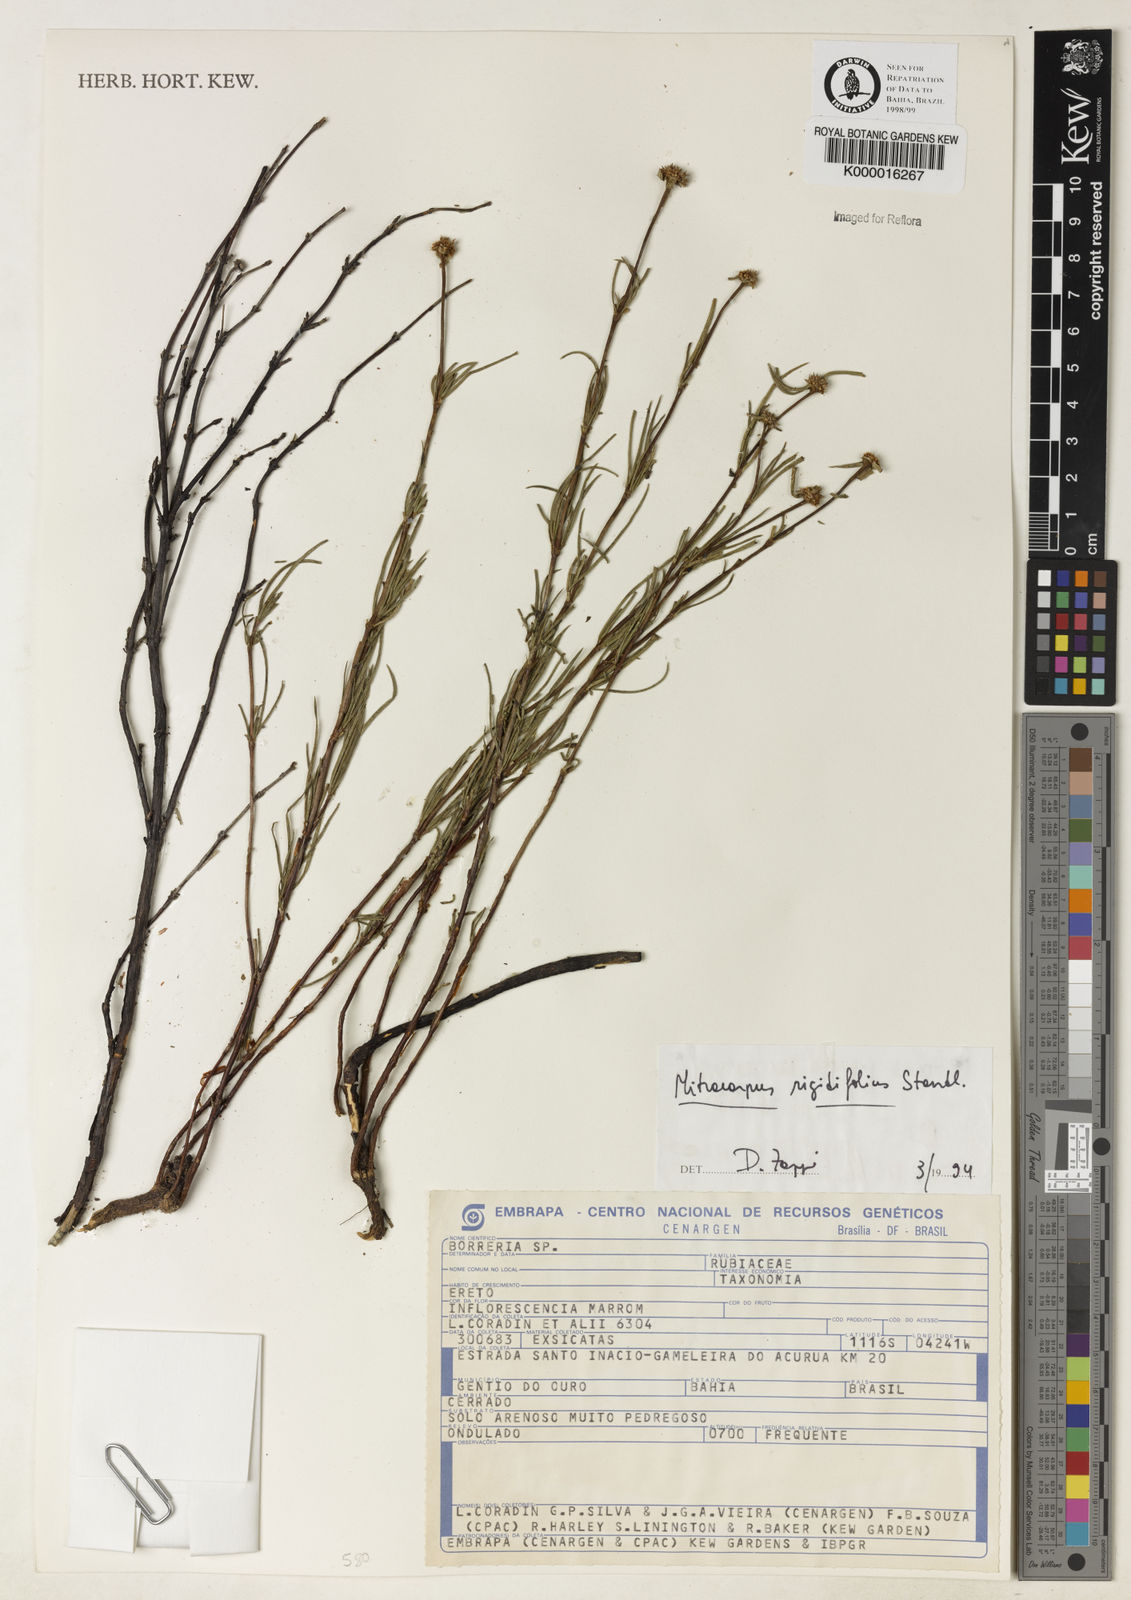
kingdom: Plantae
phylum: Tracheophyta
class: Magnoliopsida
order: Gentianales
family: Rubiaceae
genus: Mitracarpus
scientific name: Mitracarpus rigidifolius
